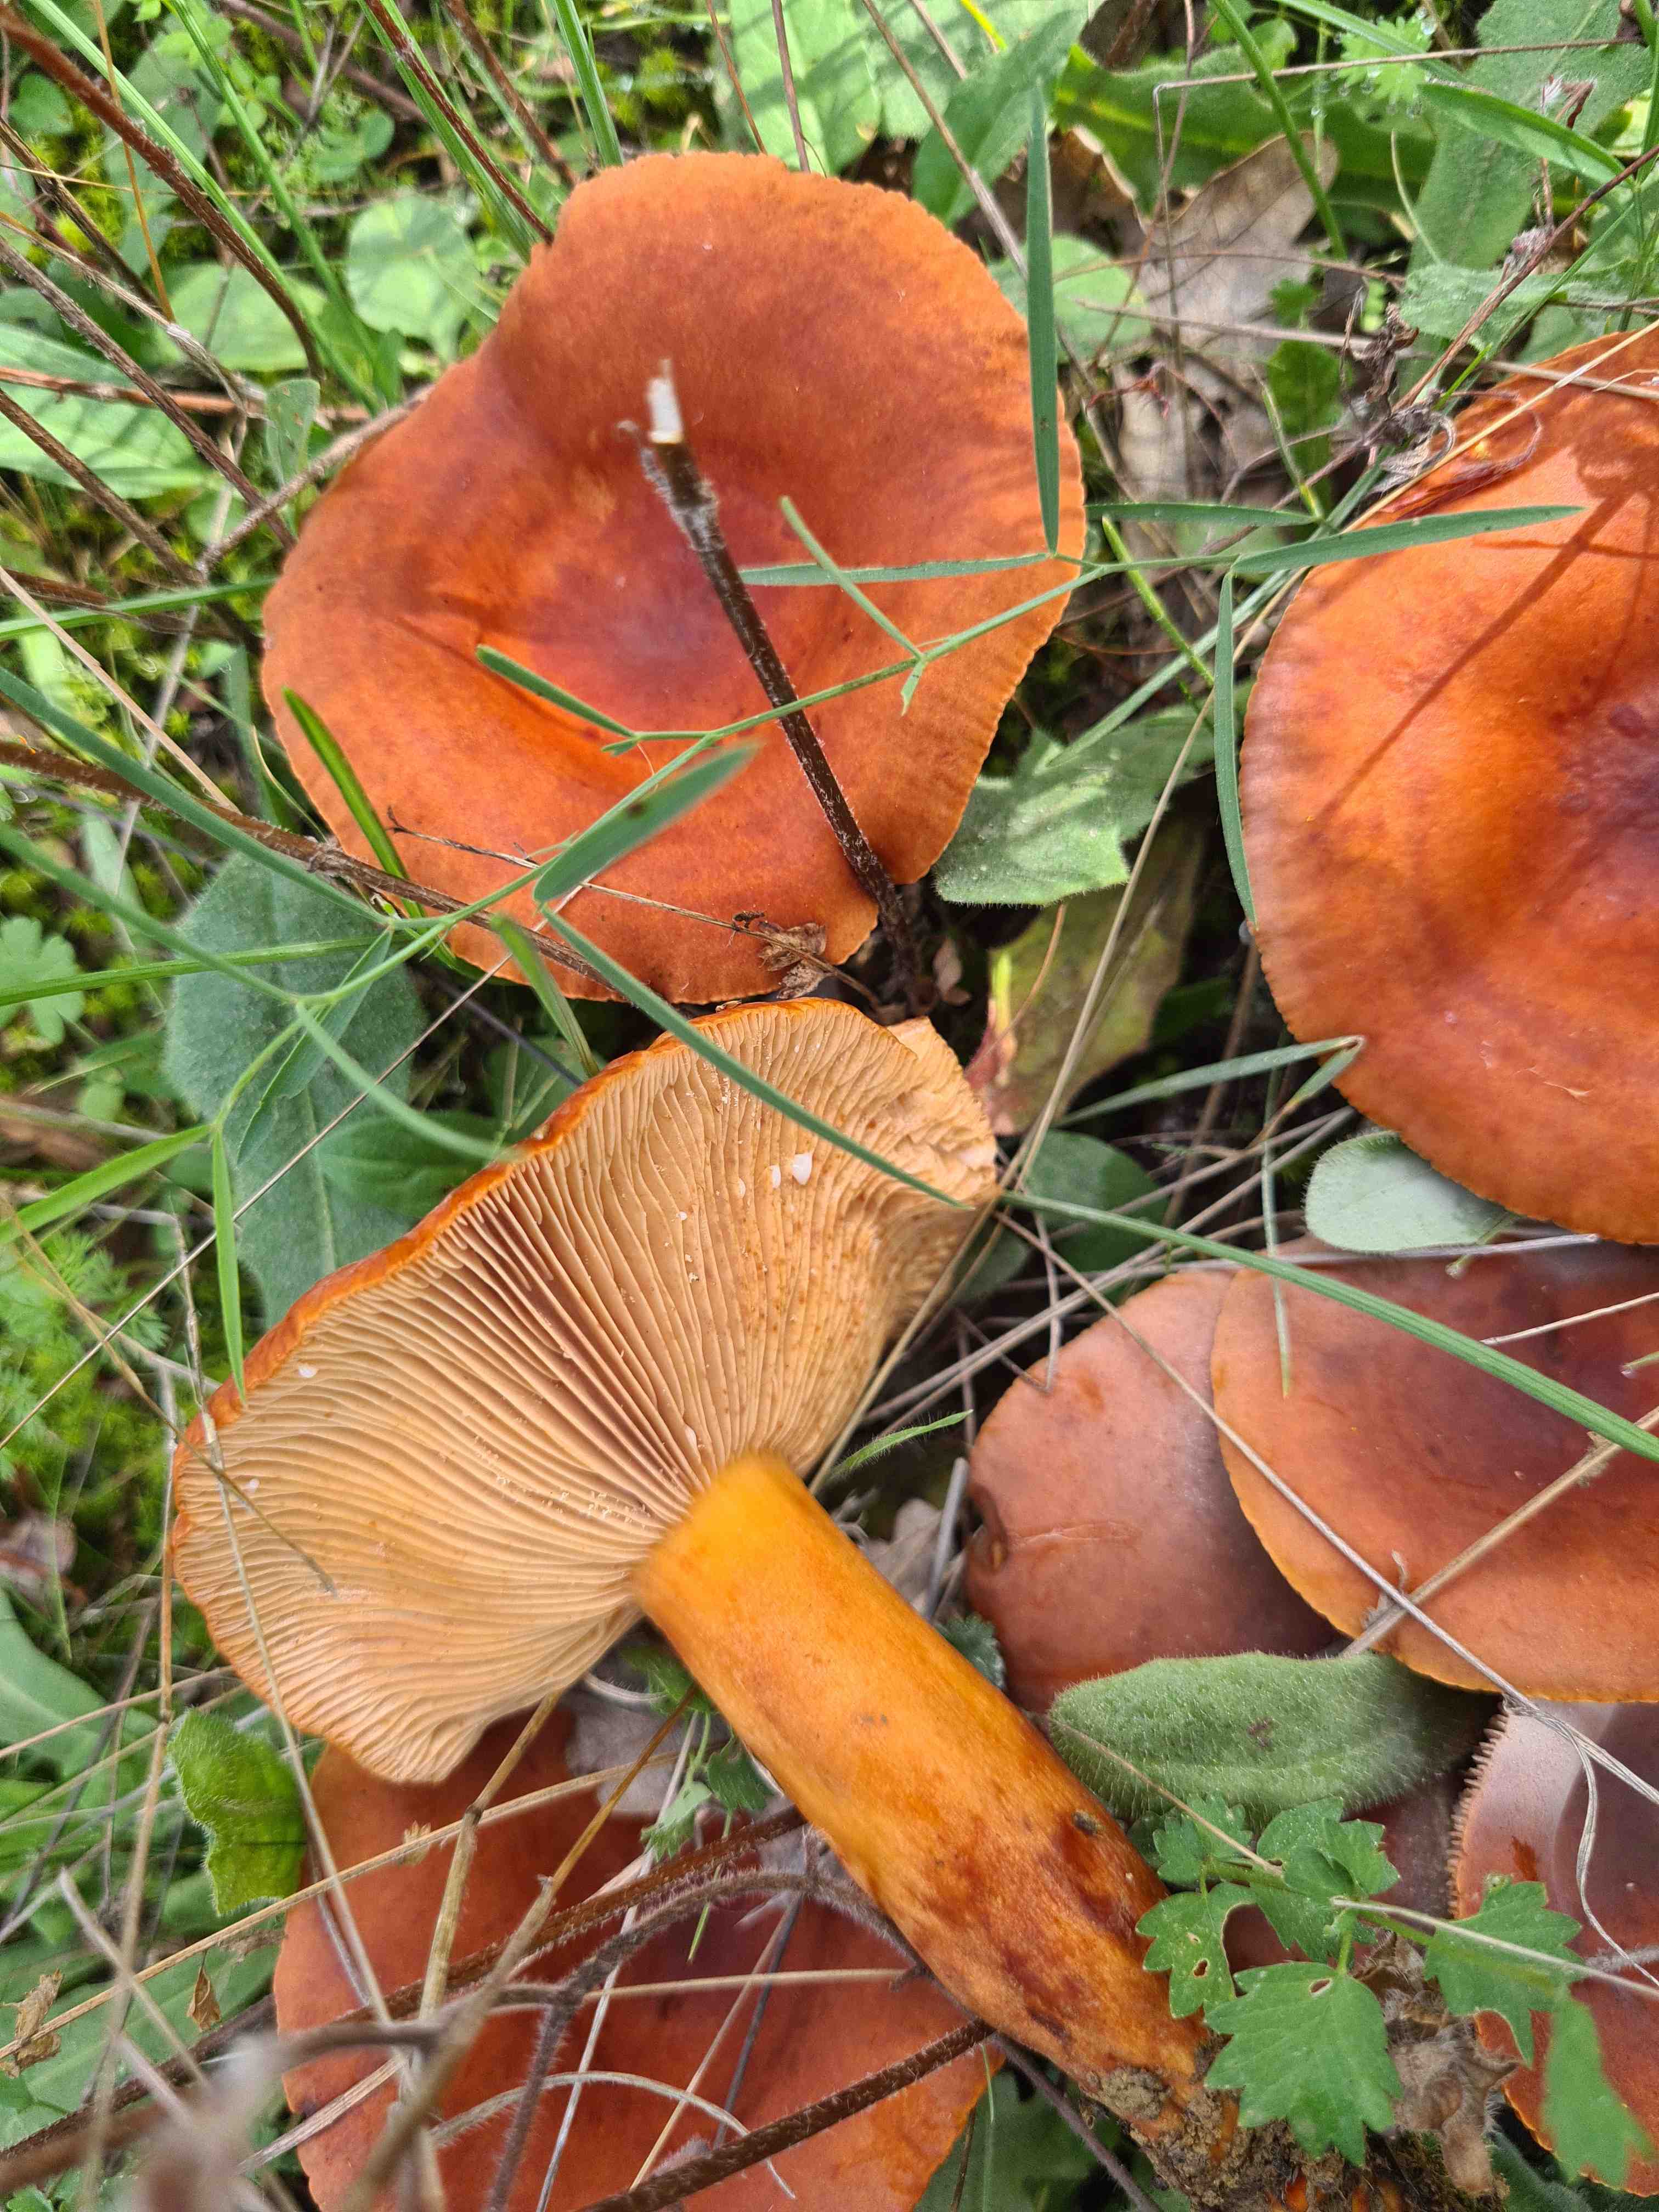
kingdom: Fungi
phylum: Basidiomycota
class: Agaricomycetes
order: Russulales
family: Russulaceae
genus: Lactifluus
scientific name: Lactifluus
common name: mælkehat
